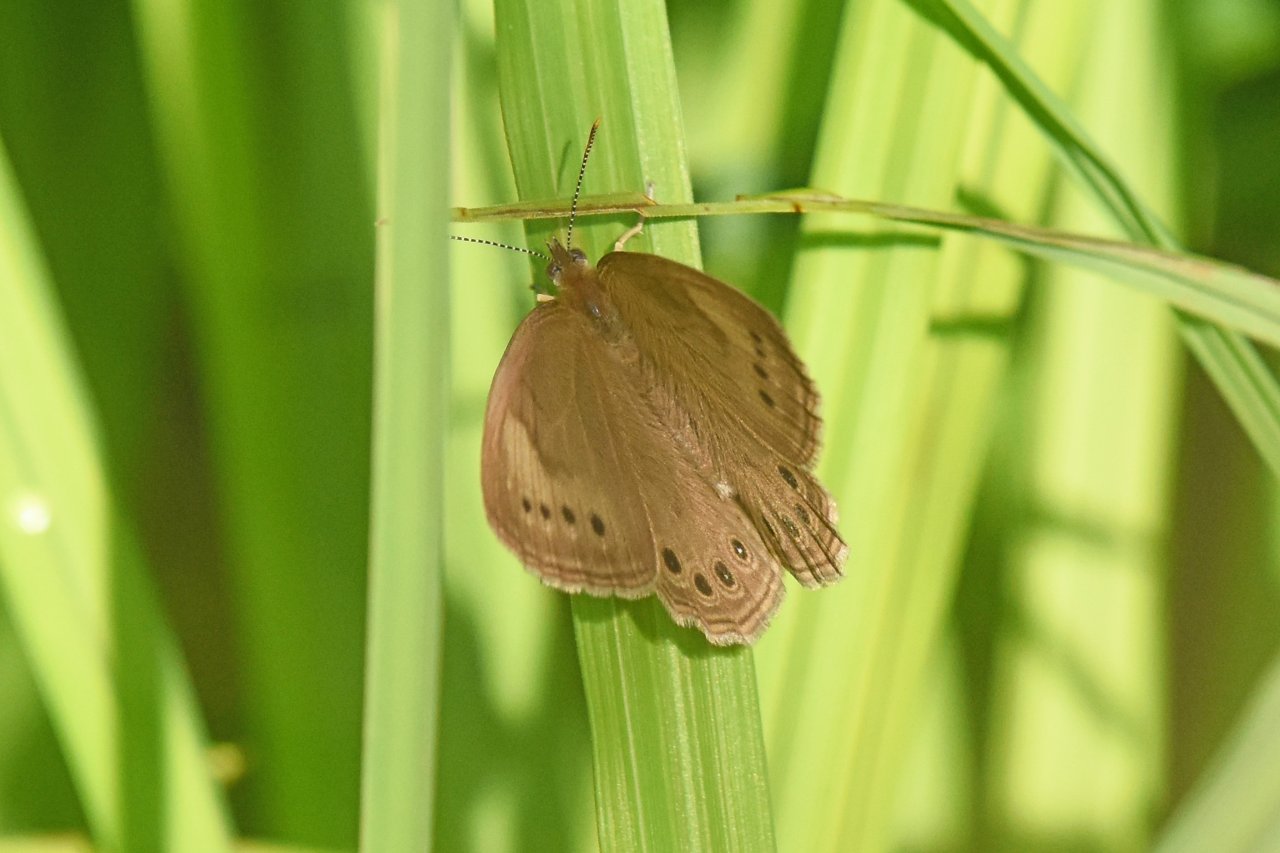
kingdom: Animalia
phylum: Arthropoda
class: Insecta
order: Lepidoptera
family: Nymphalidae
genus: Lethe
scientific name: Lethe eurydice
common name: Eyed Brown
